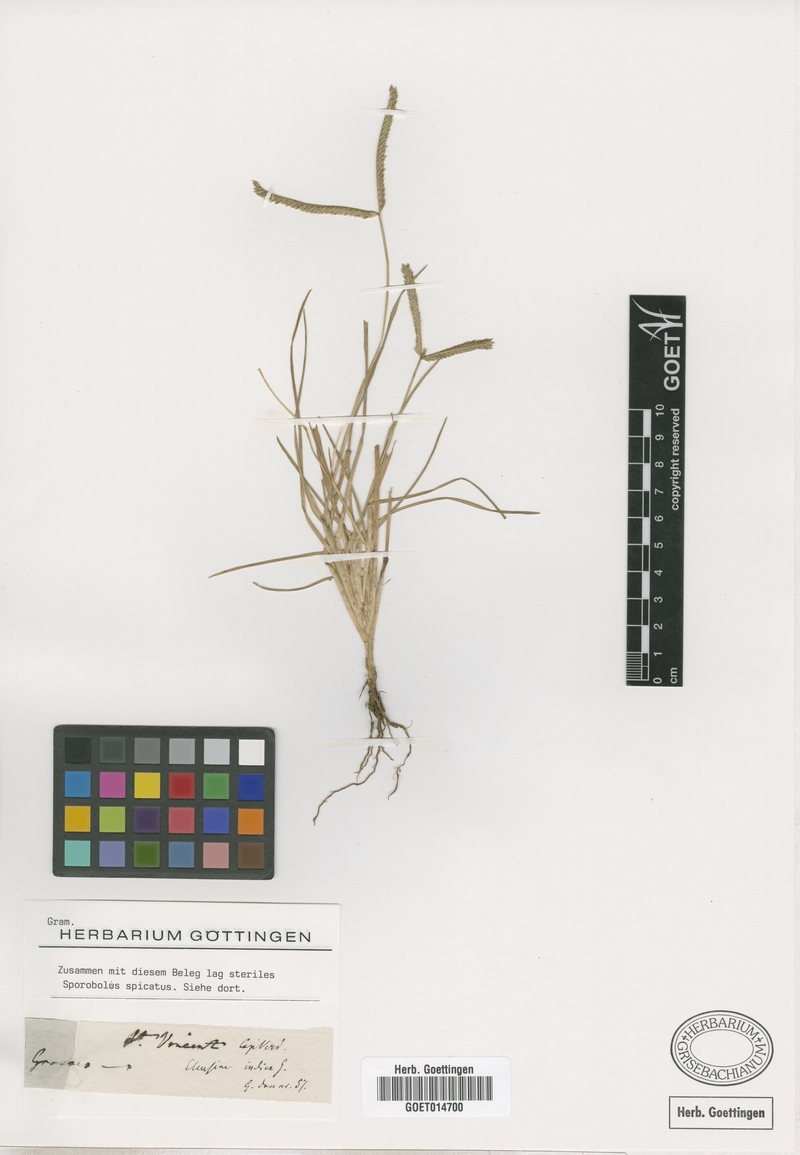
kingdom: Plantae
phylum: Tracheophyta
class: Liliopsida
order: Poales
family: Poaceae
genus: Eleusine
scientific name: Eleusine indica
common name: Yard-grass
